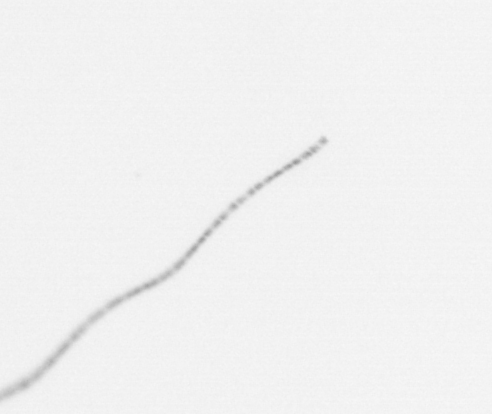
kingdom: Chromista
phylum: Ochrophyta
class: Bacillariophyceae
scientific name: Bacillariophyceae
